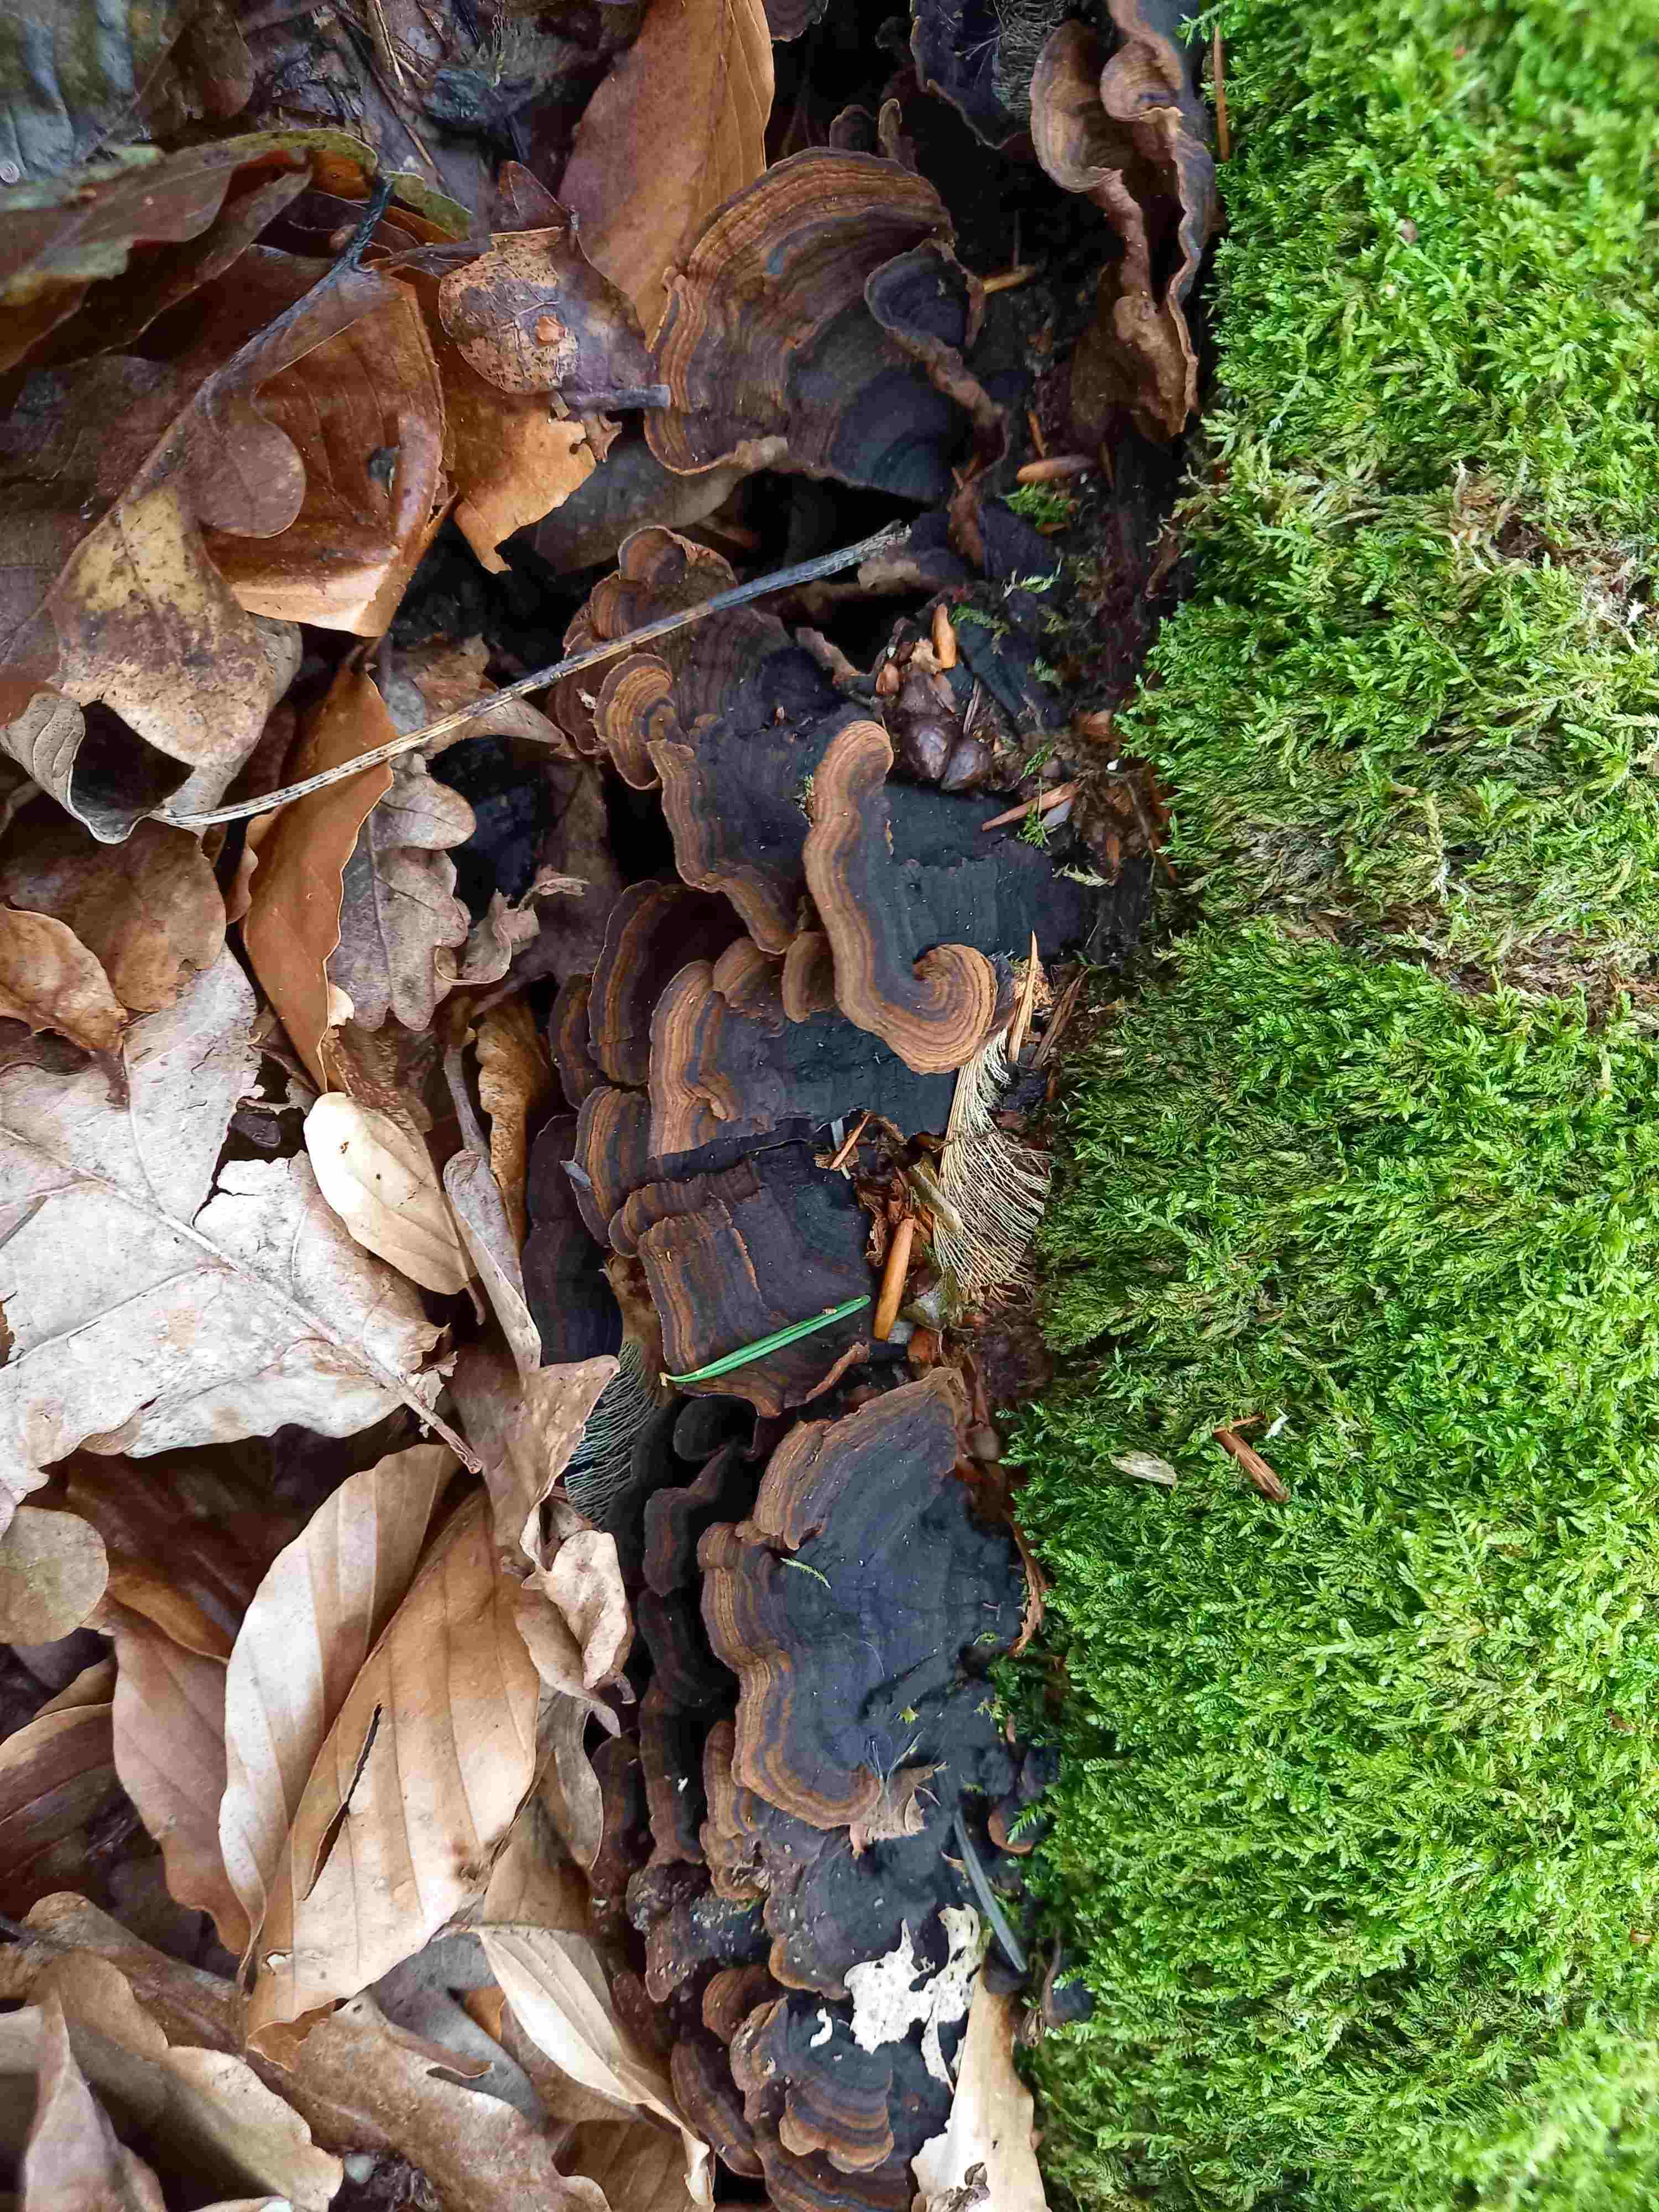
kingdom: Fungi
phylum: Basidiomycota
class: Agaricomycetes
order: Hymenochaetales
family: Hymenochaetaceae
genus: Hymenochaete
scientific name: Hymenochaete rubiginosa
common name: stiv ruslædersvamp
